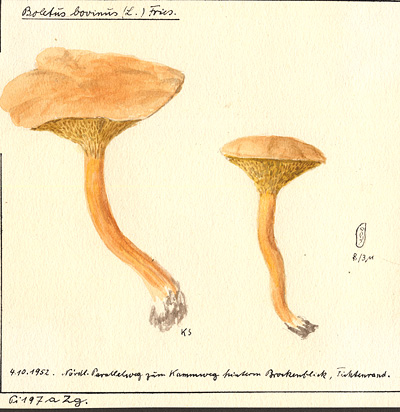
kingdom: Fungi
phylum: Basidiomycota
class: Agaricomycetes
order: Boletales
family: Suillaceae
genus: Suillus
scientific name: Suillus bovinus
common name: Bovine bolete
